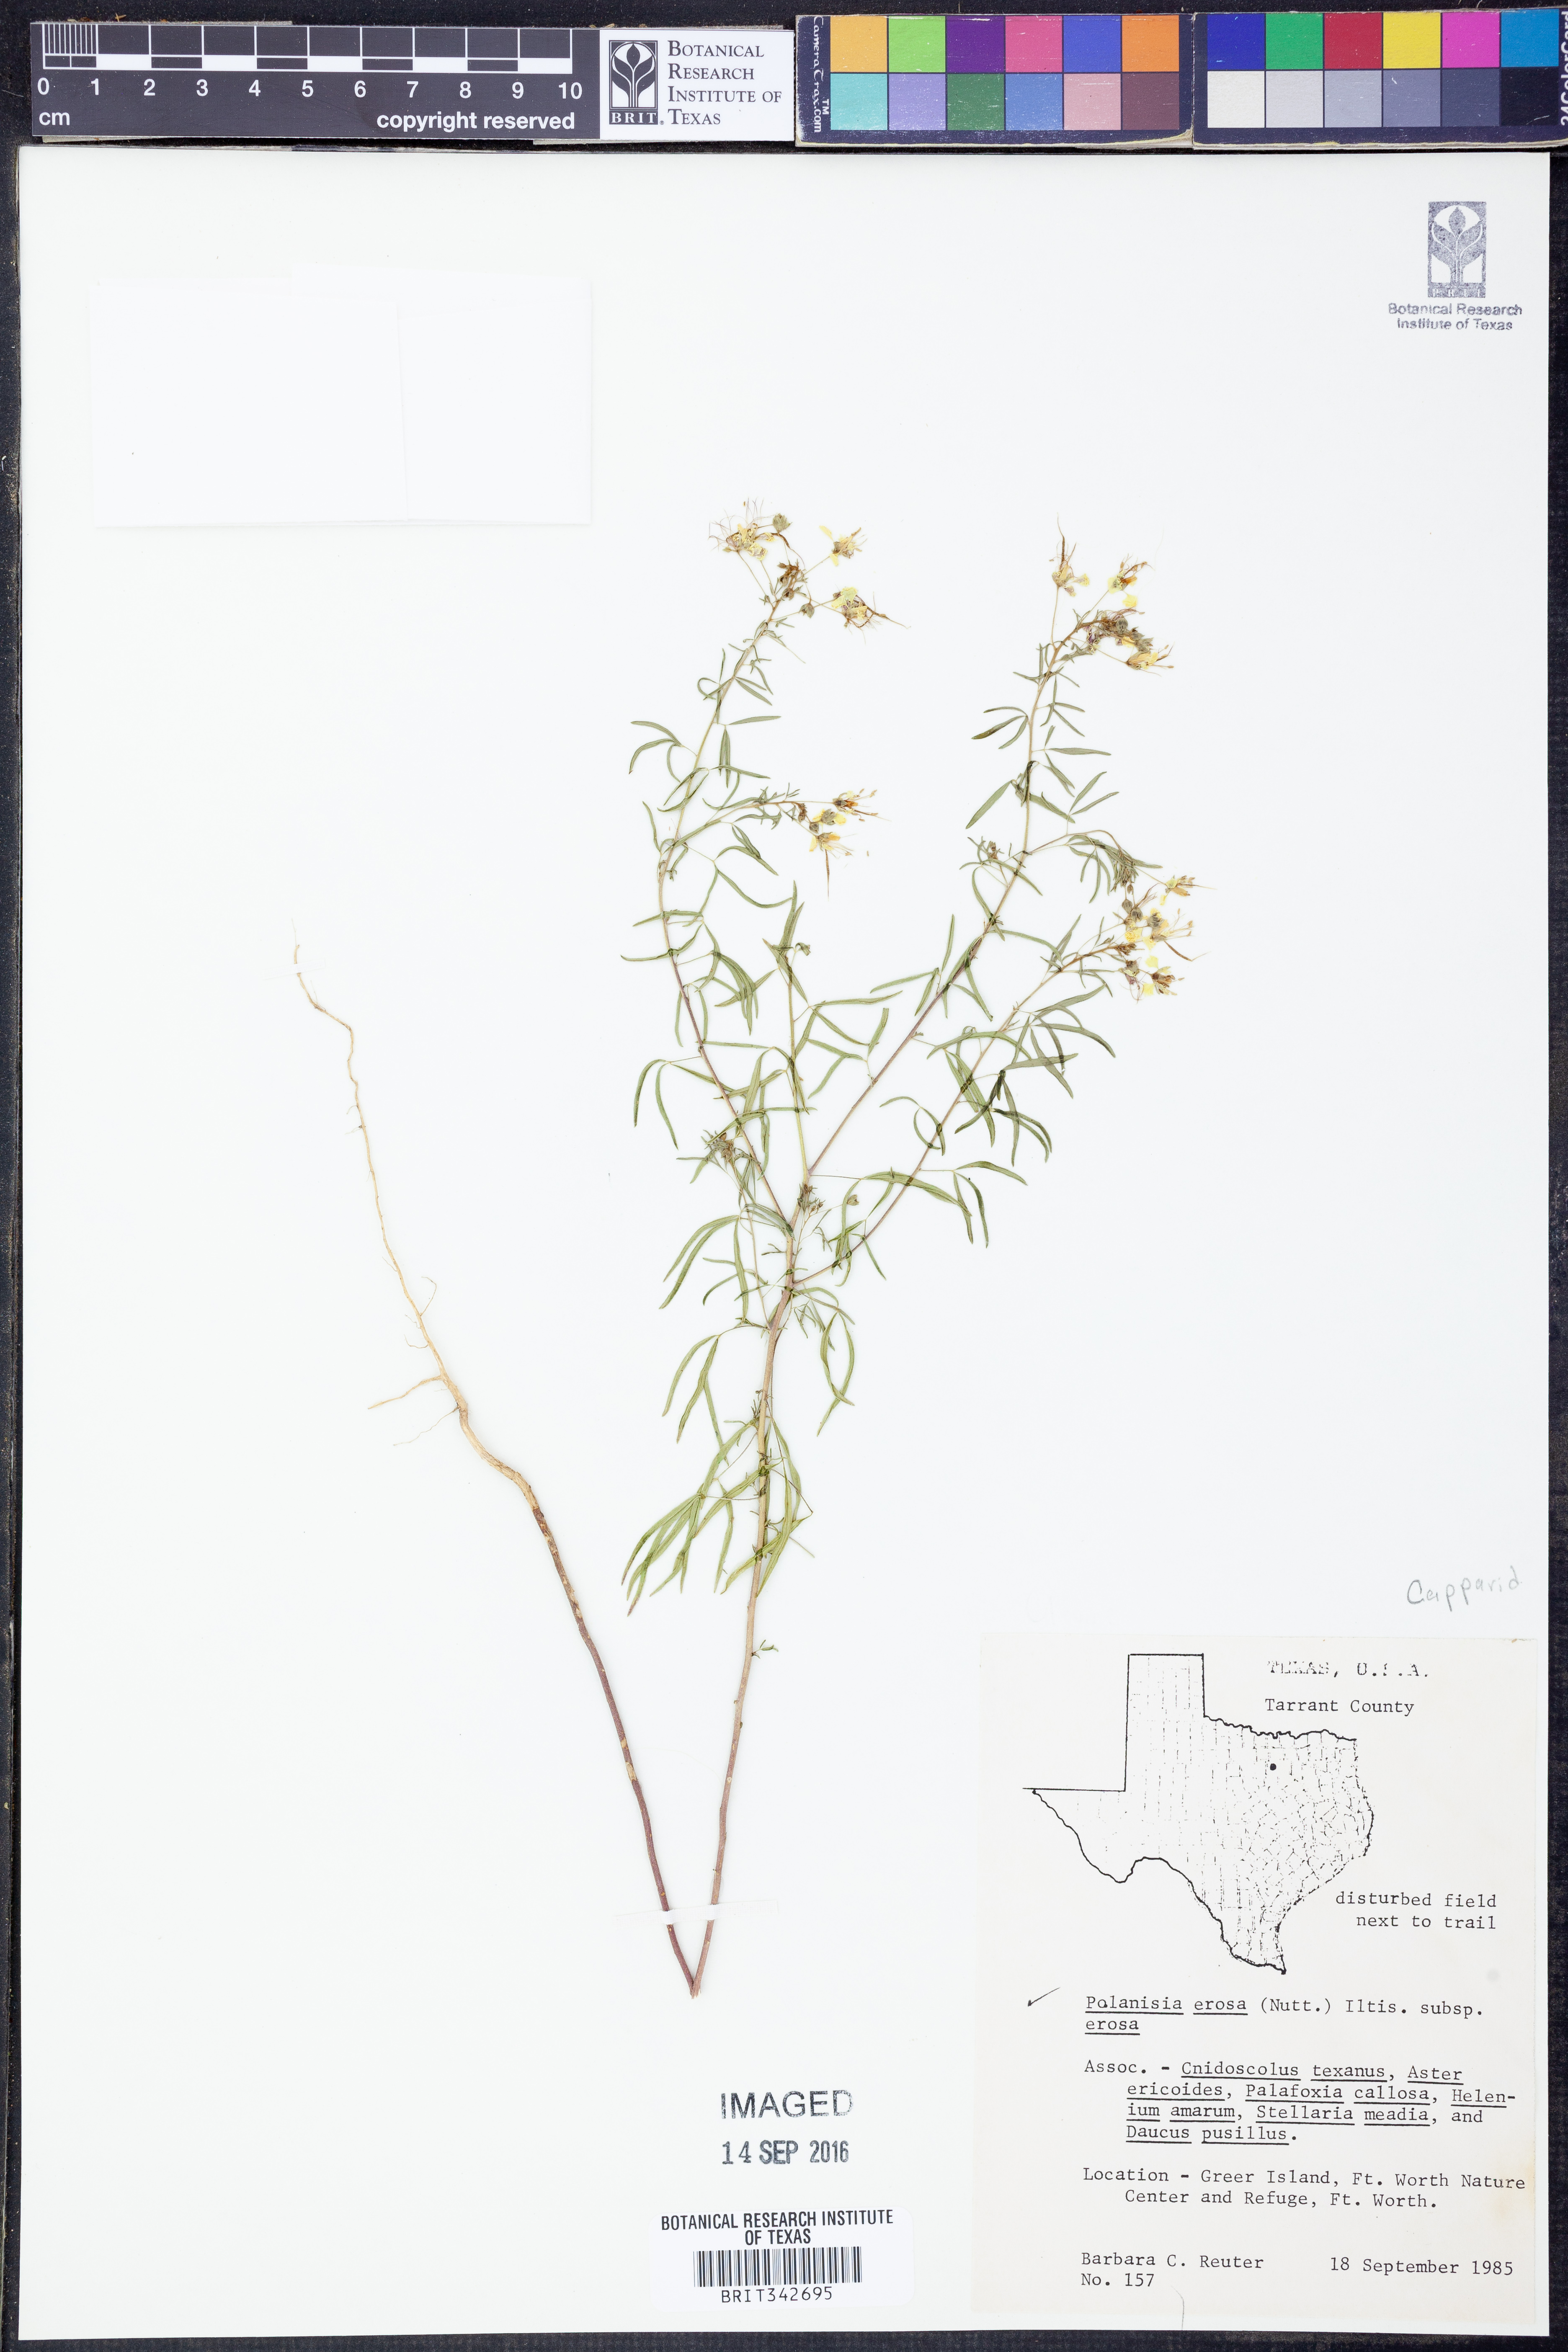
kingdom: Plantae
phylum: Tracheophyta
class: Magnoliopsida
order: Brassicales
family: Cleomaceae
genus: Polanisia
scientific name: Polanisia erosa
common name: Large clammyweed
